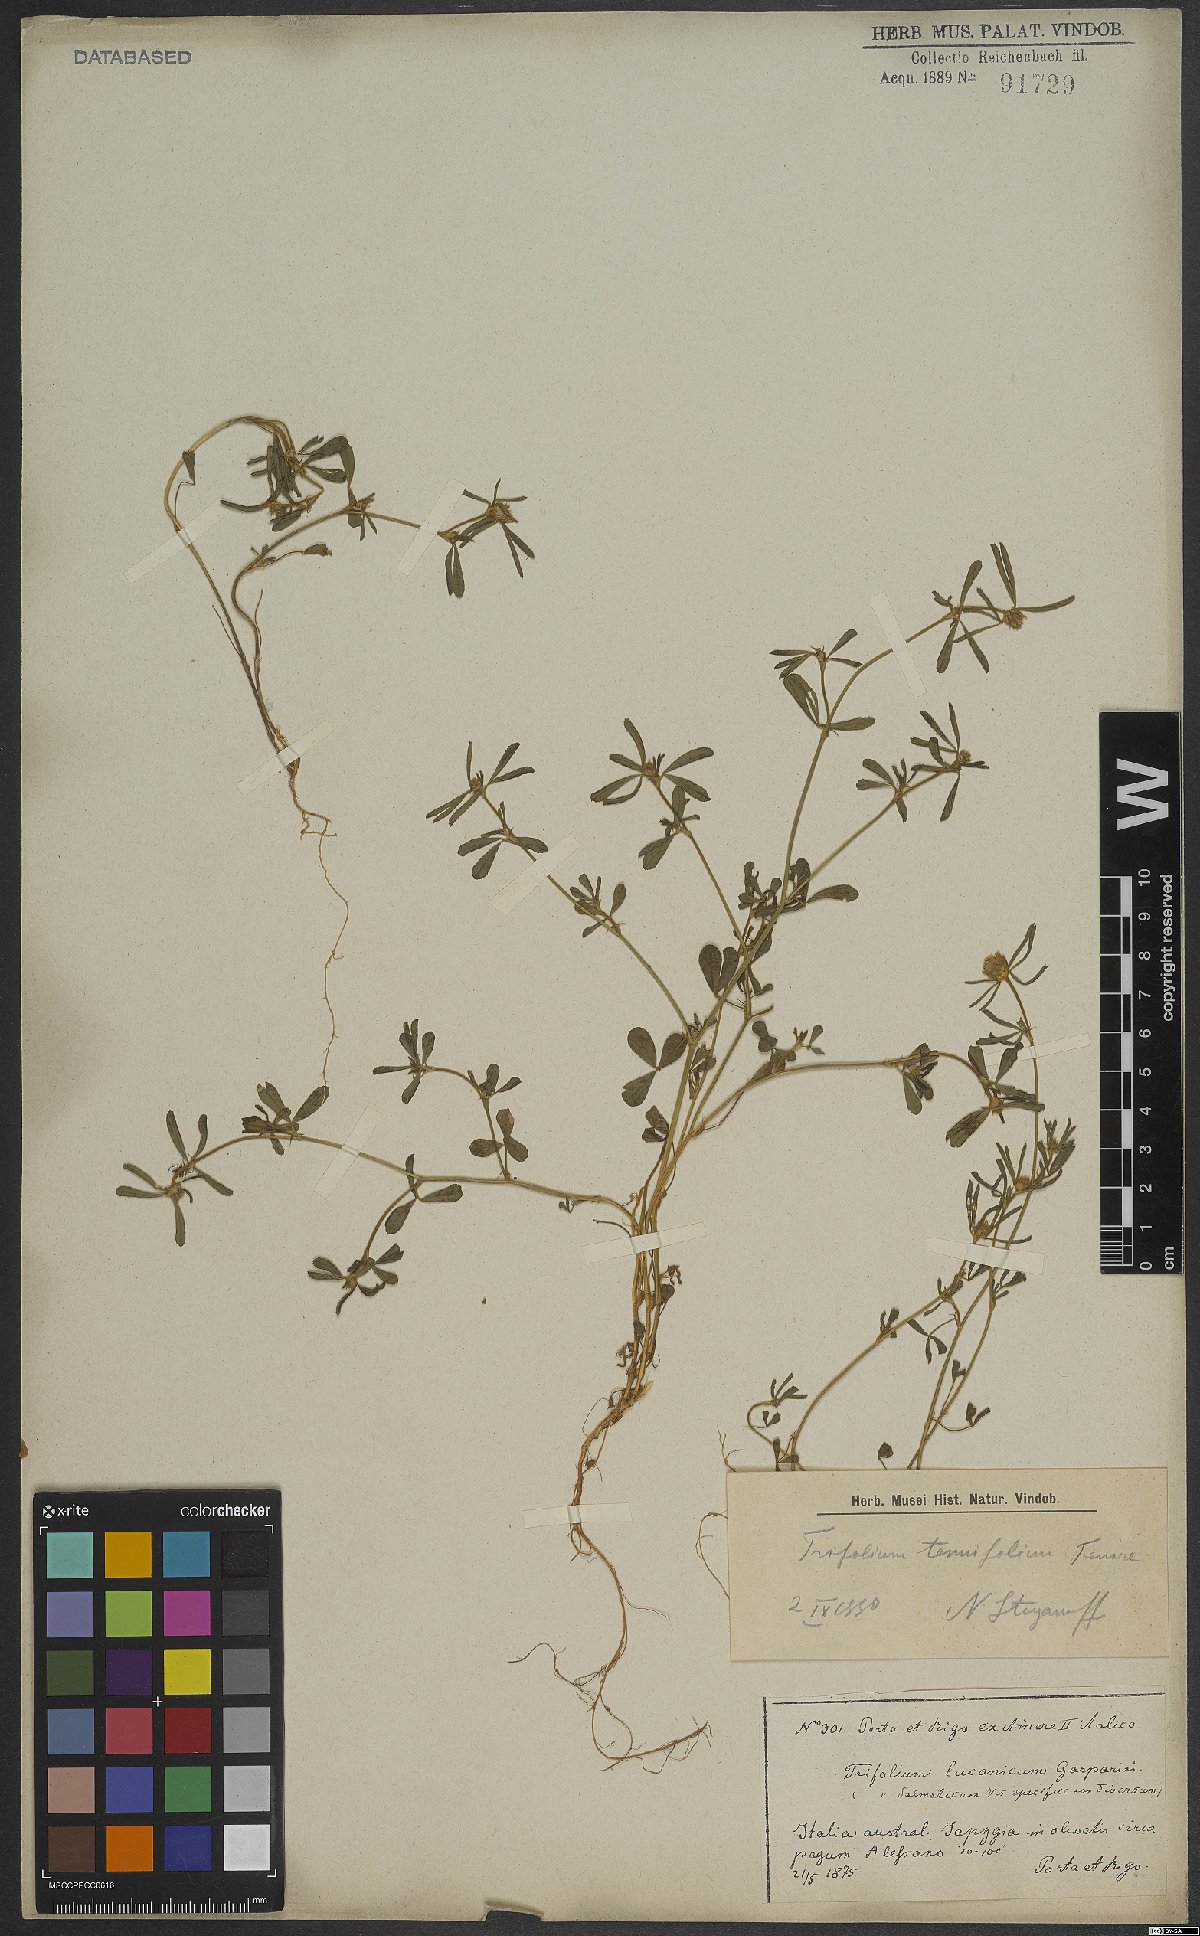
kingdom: Plantae
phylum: Tracheophyta
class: Magnoliopsida
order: Fabales
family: Fabaceae
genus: Trifolium
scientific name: Trifolium tenuifolium
